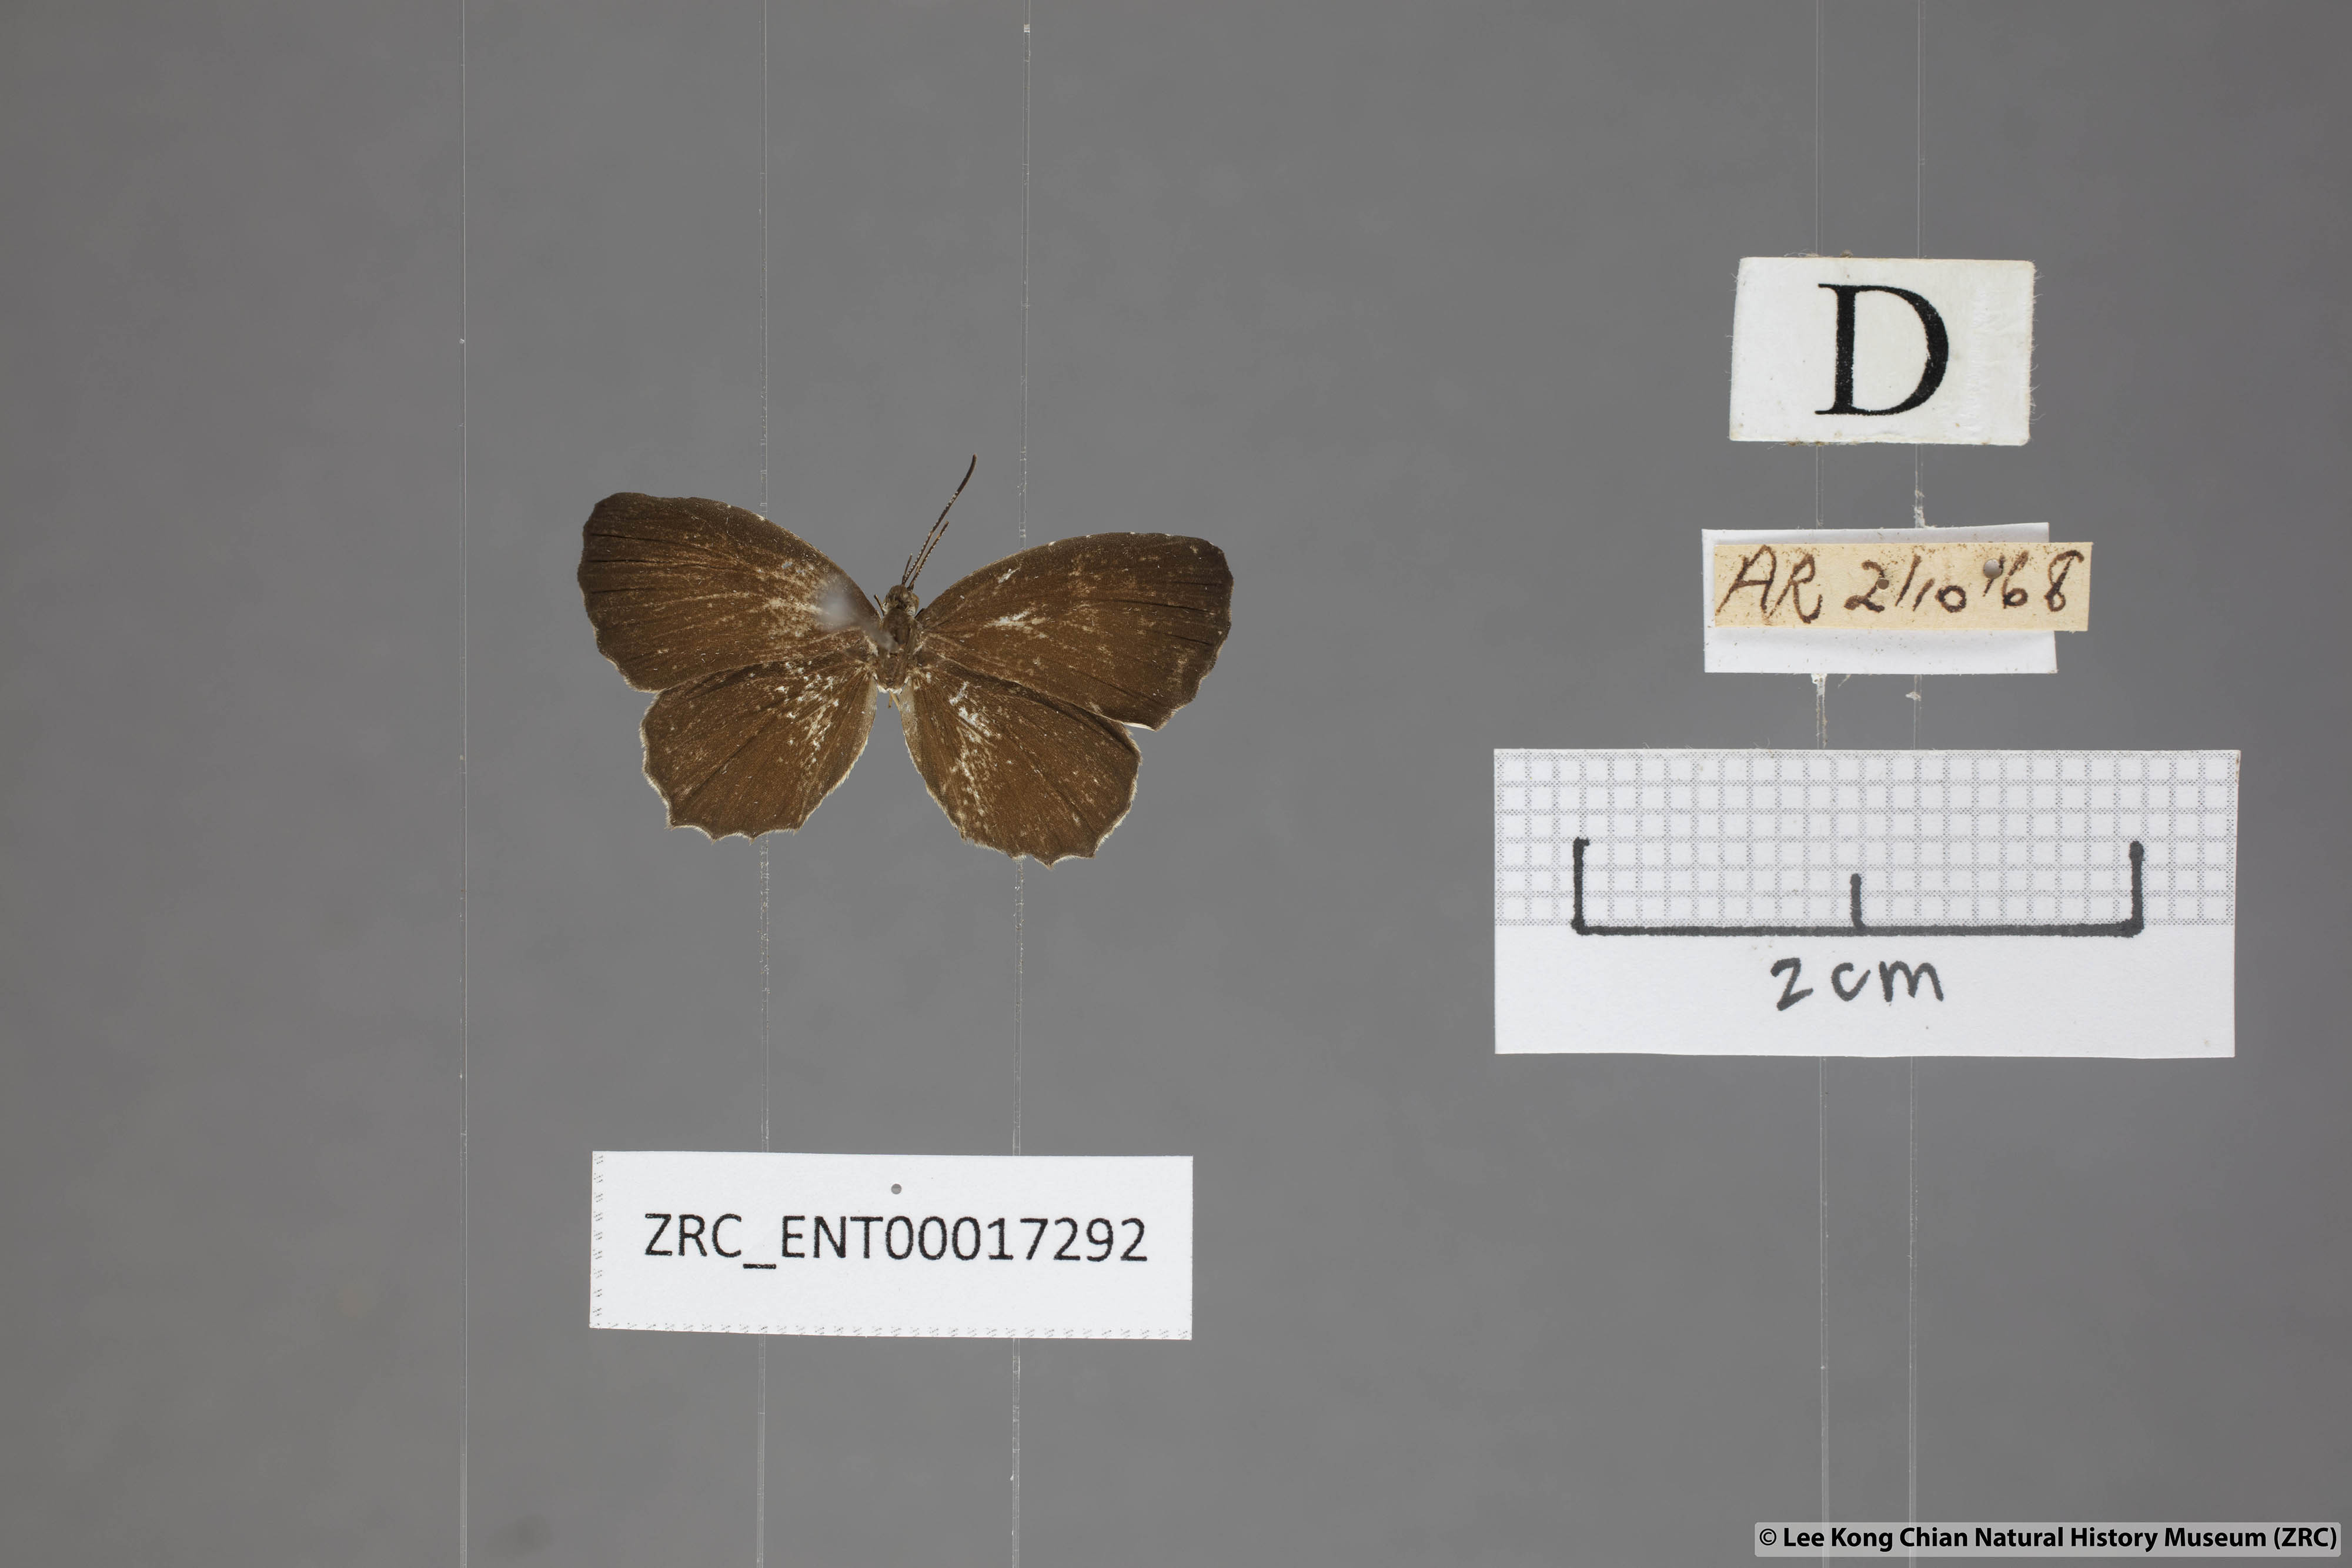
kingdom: Animalia
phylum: Arthropoda
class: Insecta
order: Lepidoptera
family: Lycaenidae
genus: Allotinus
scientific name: Allotinus substrigosa
